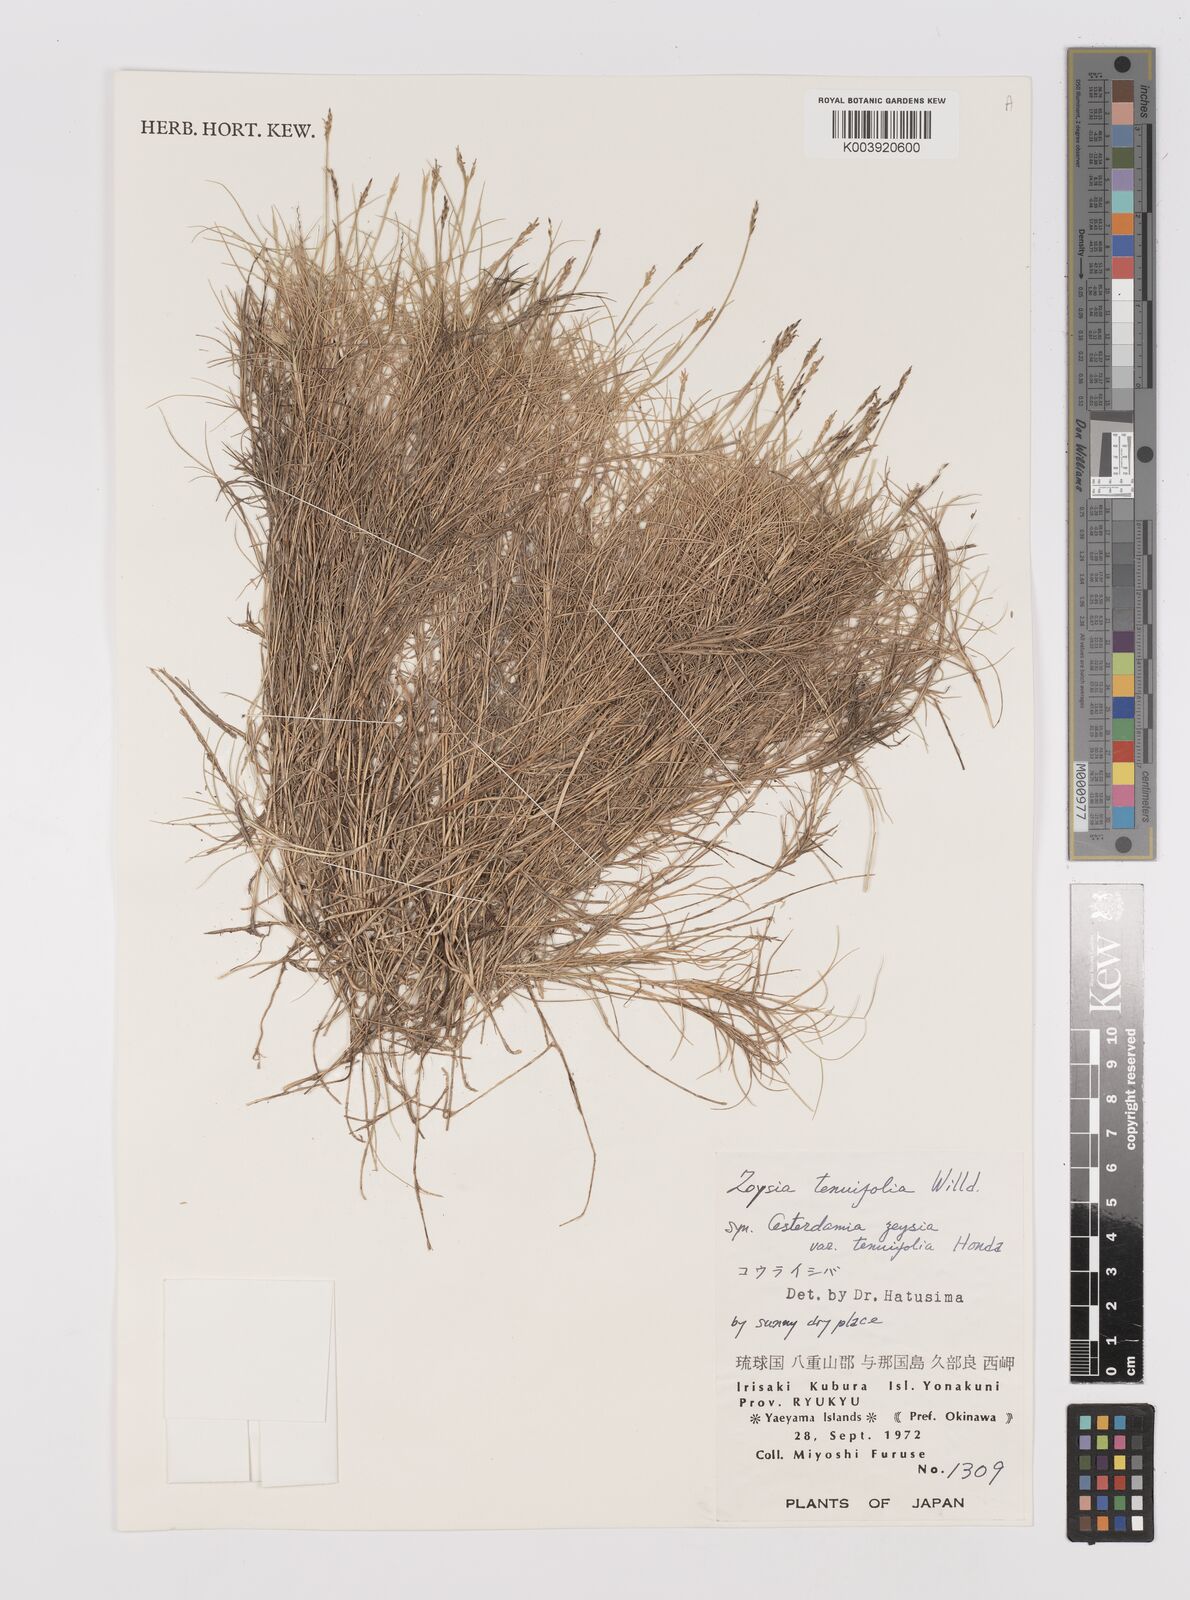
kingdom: Plantae
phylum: Tracheophyta
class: Liliopsida
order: Poales
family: Poaceae
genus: Zoysia
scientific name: Zoysia matrella
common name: Manila grass
